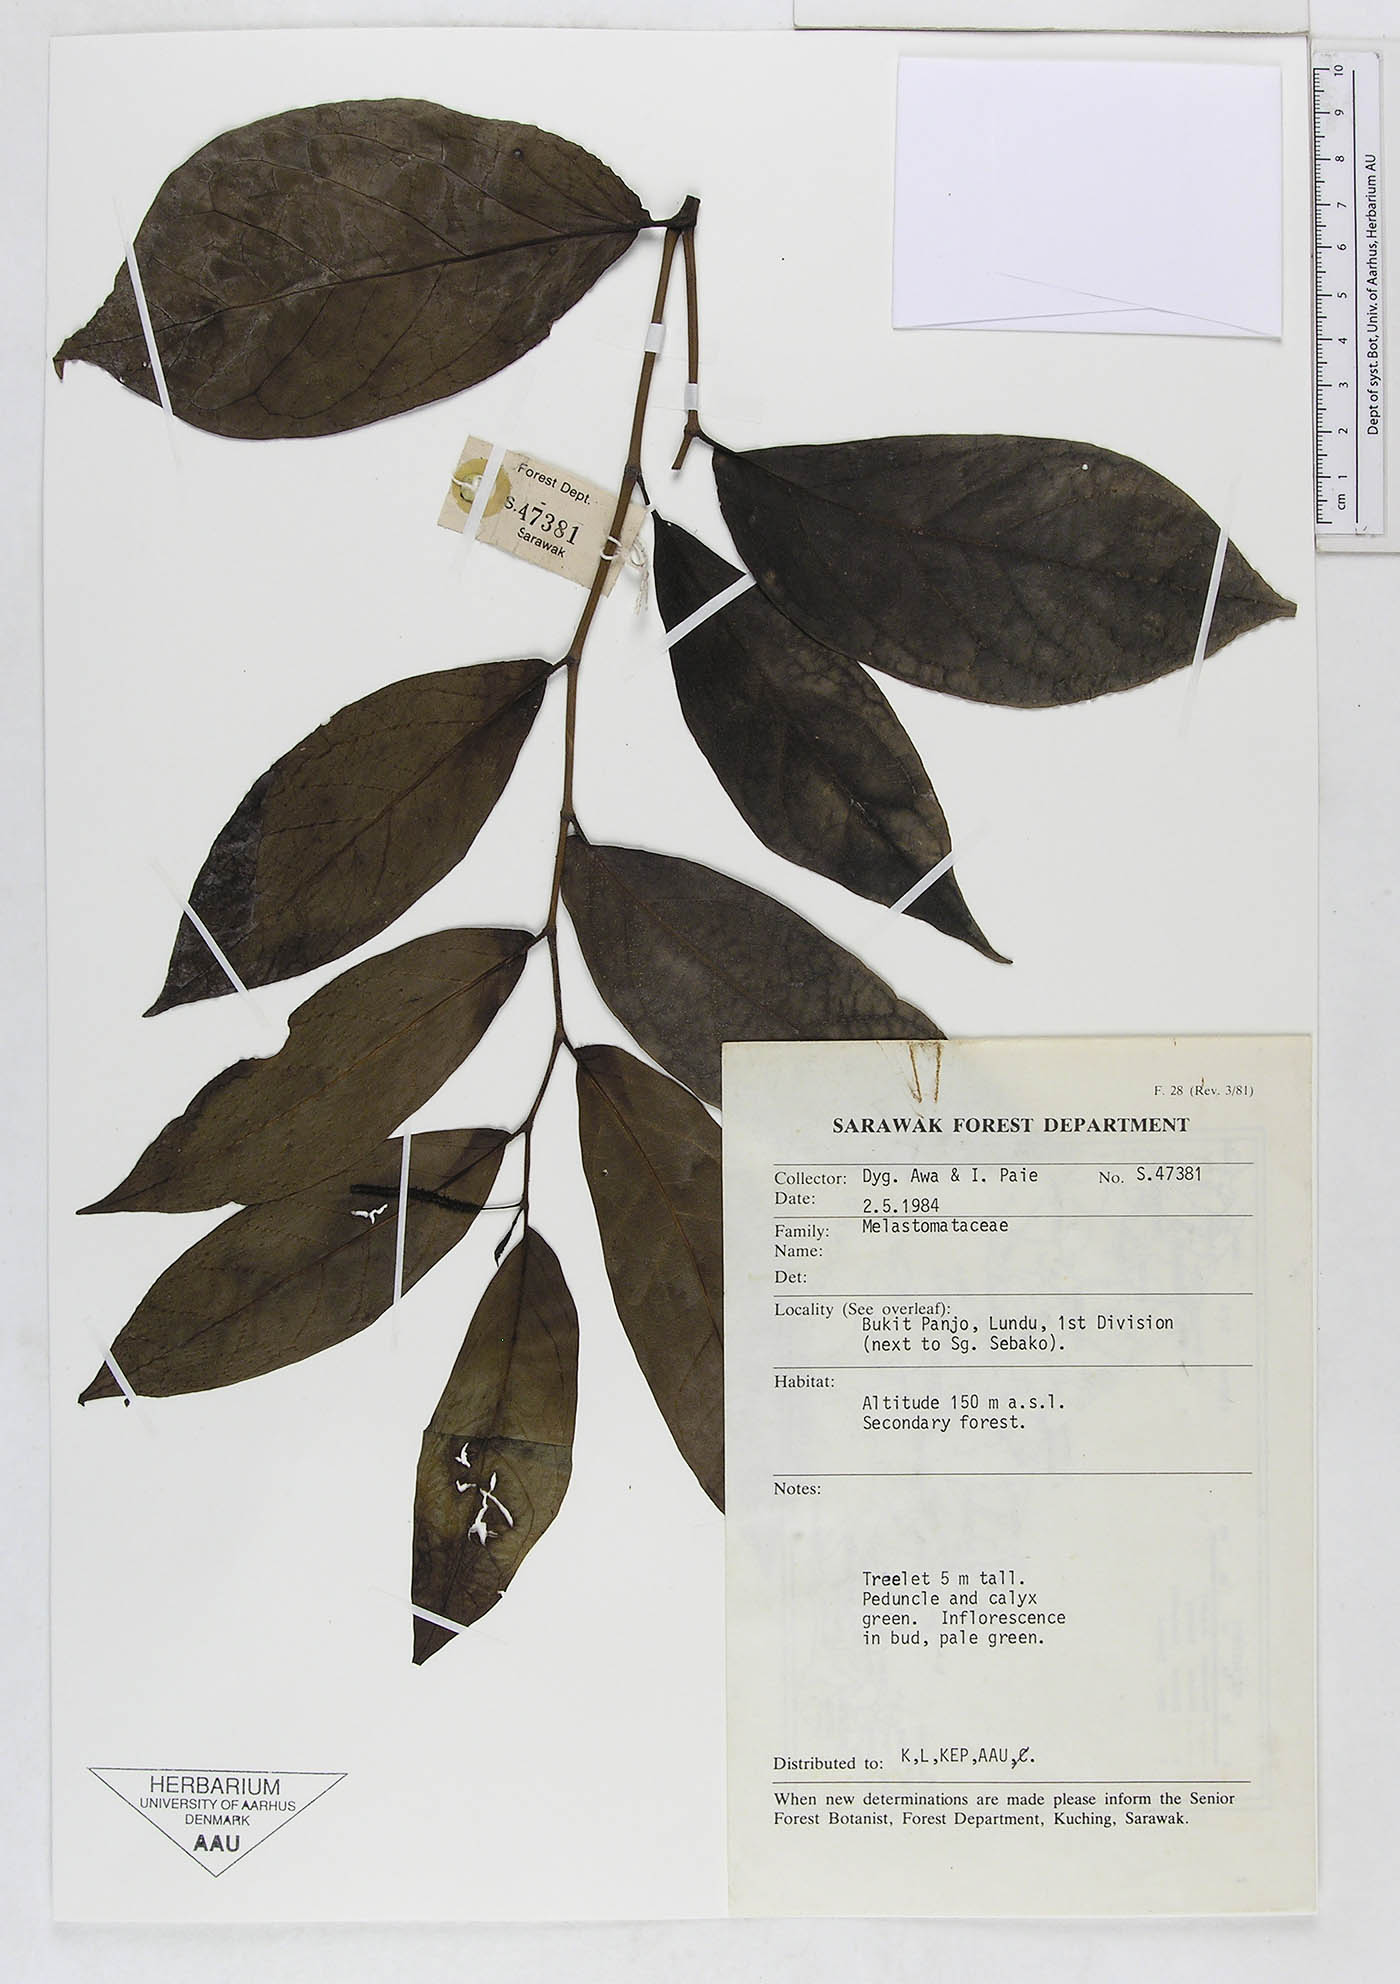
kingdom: Plantae
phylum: Tracheophyta
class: Magnoliopsida
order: Piperales
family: Piperaceae
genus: Piper
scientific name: Piper
